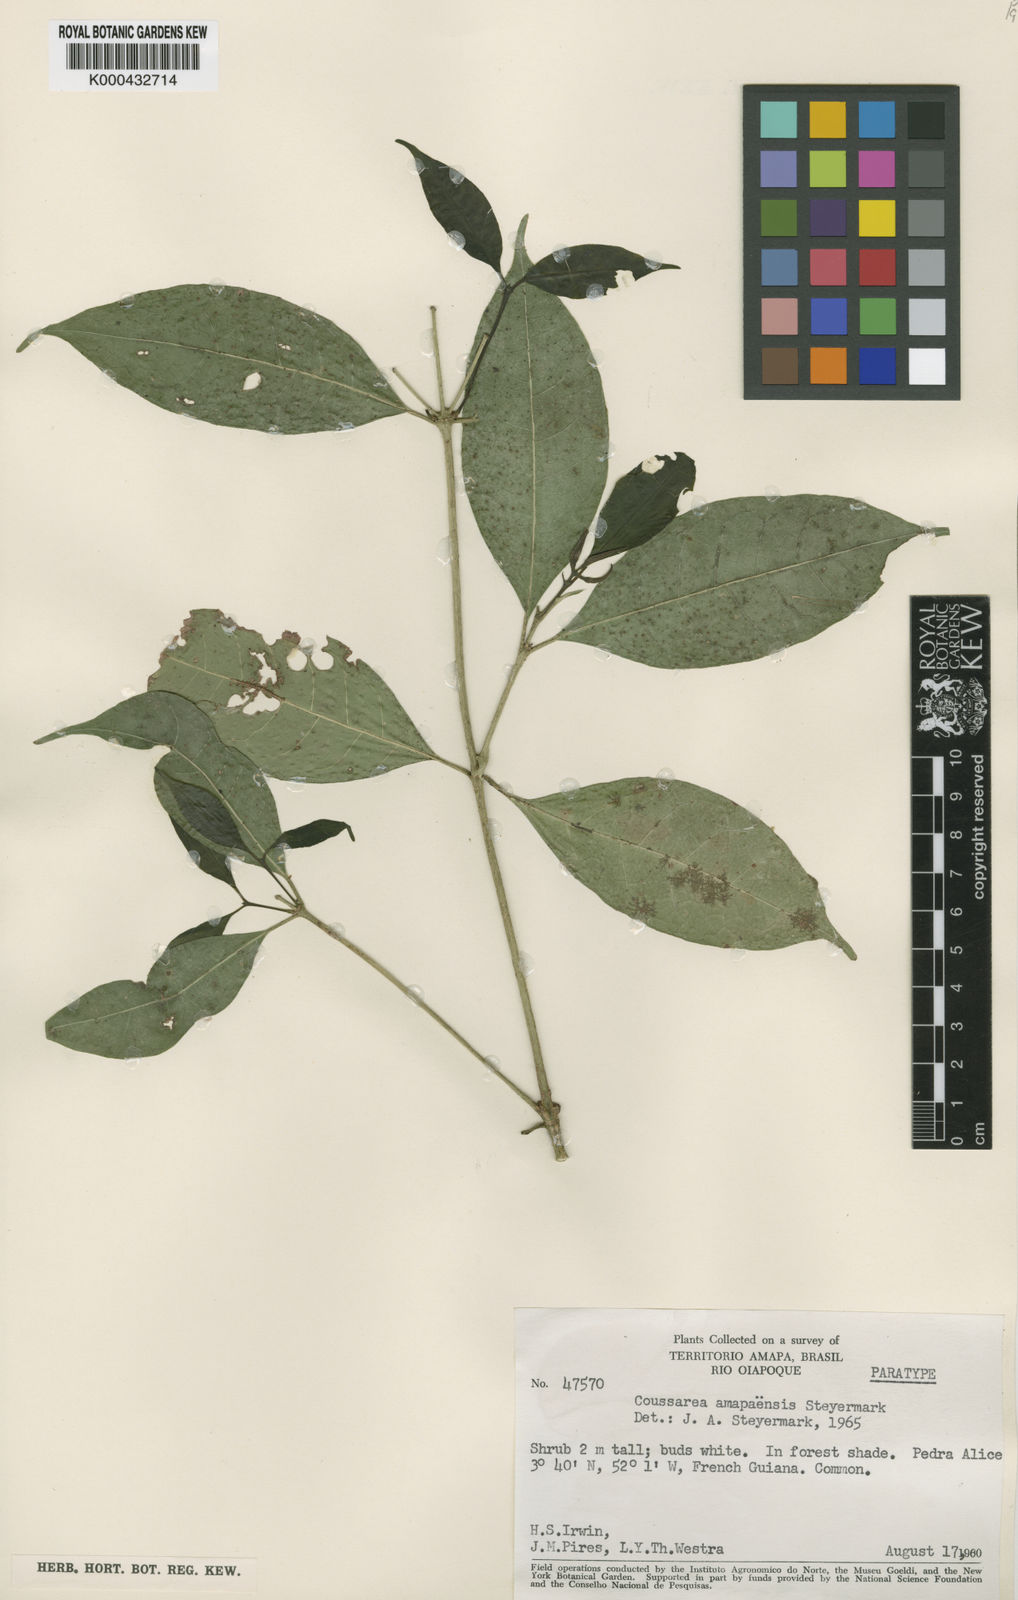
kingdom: Plantae
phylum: Tracheophyta
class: Magnoliopsida
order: Gentianales
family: Rubiaceae
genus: Coussarea
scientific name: Coussarea amapaensis
